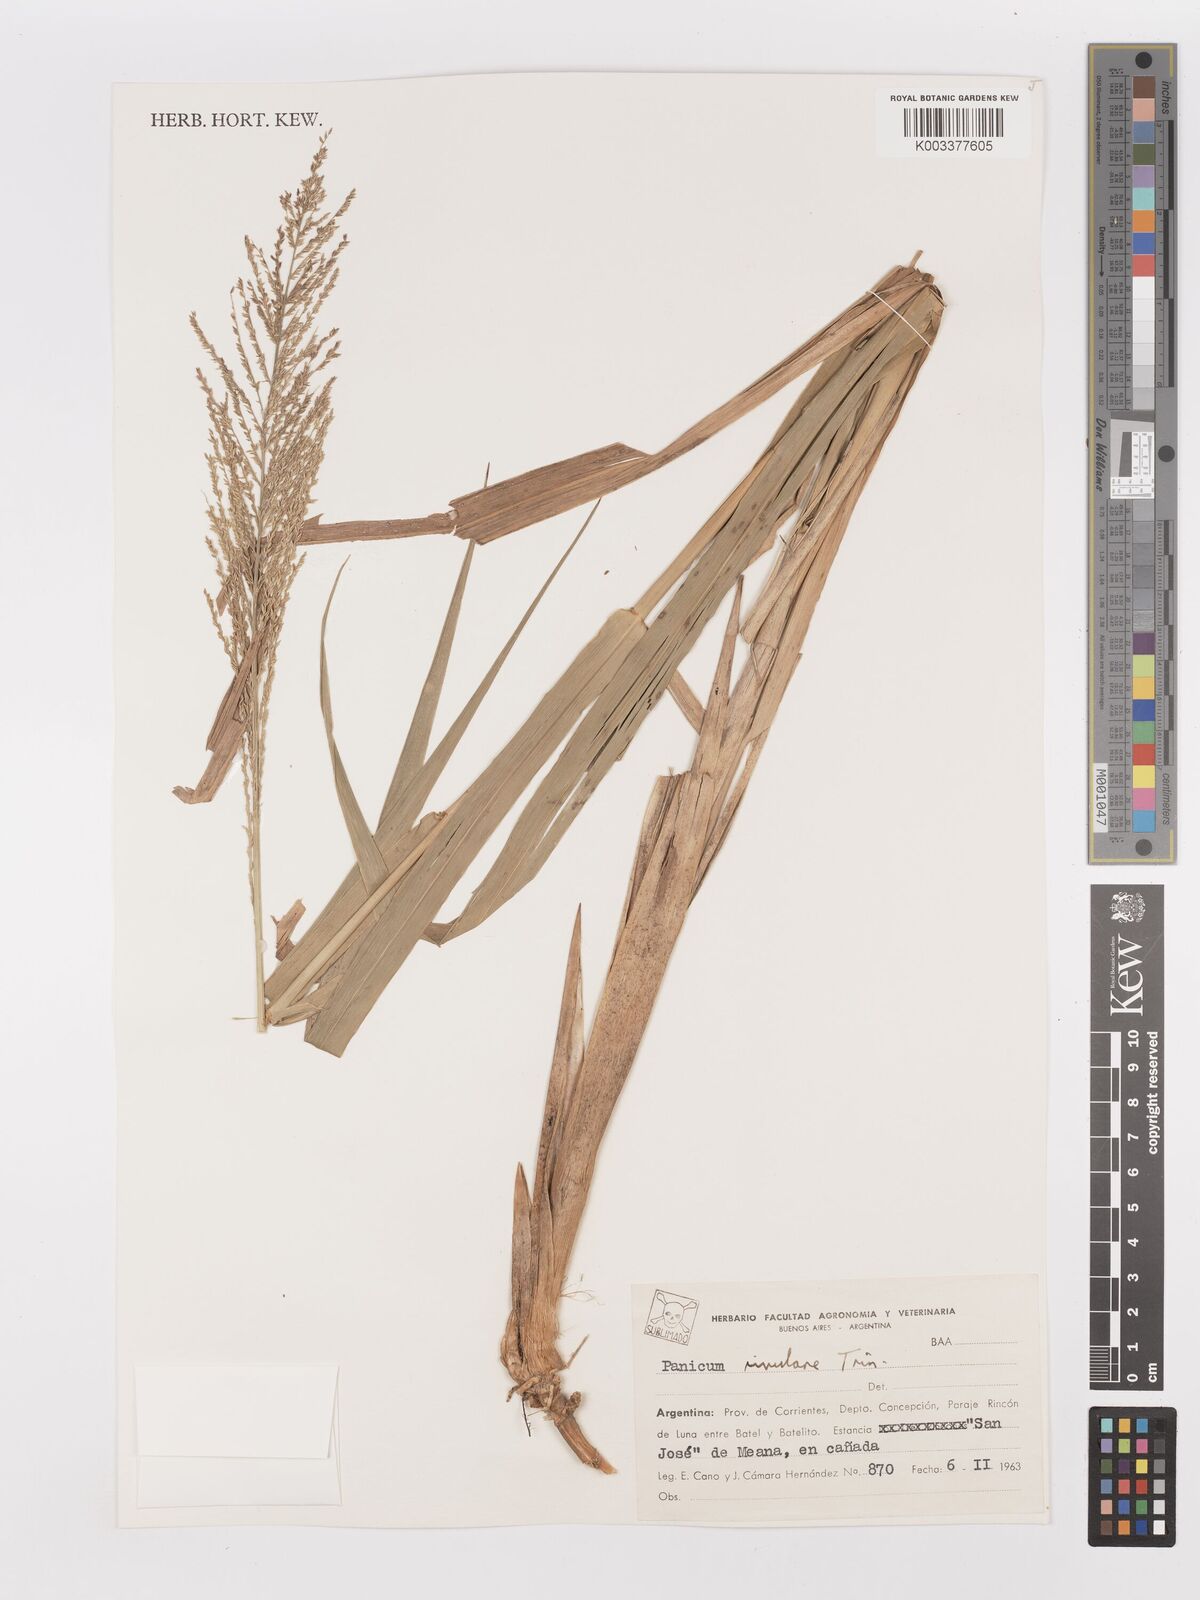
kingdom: Plantae
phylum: Tracheophyta
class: Liliopsida
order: Poales
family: Poaceae
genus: Hymenachne
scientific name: Hymenachne pernambucensis
